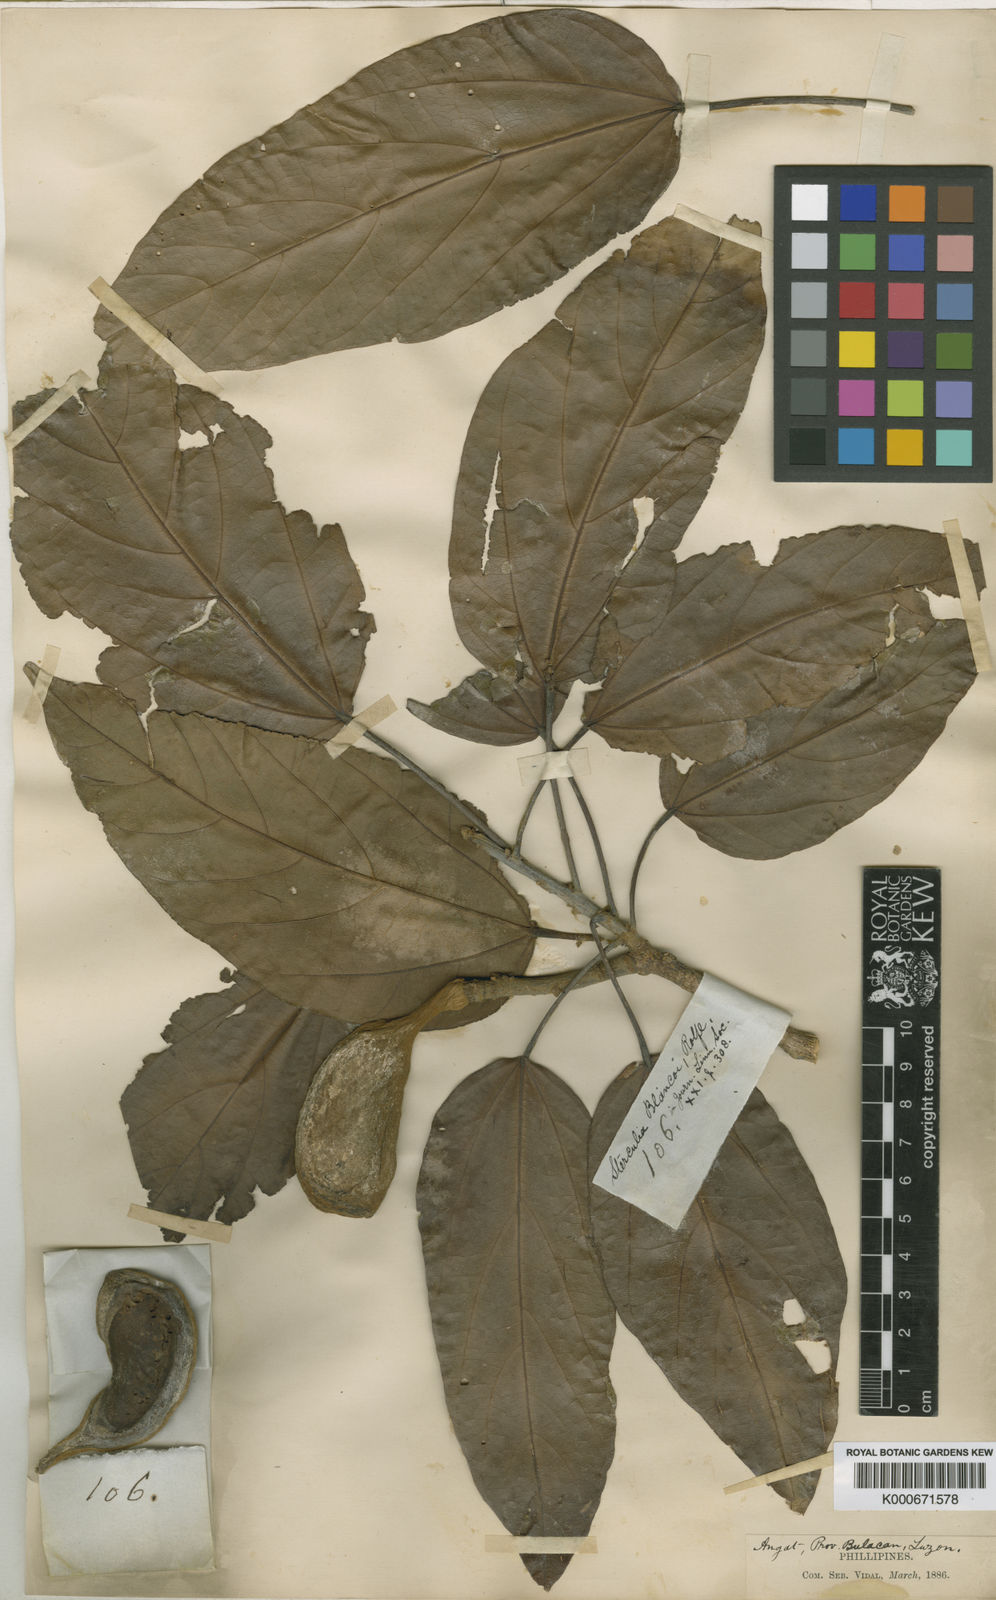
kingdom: Plantae
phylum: Tracheophyta
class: Magnoliopsida
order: Malvales
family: Malvaceae
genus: Pterygota
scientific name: Pterygota
